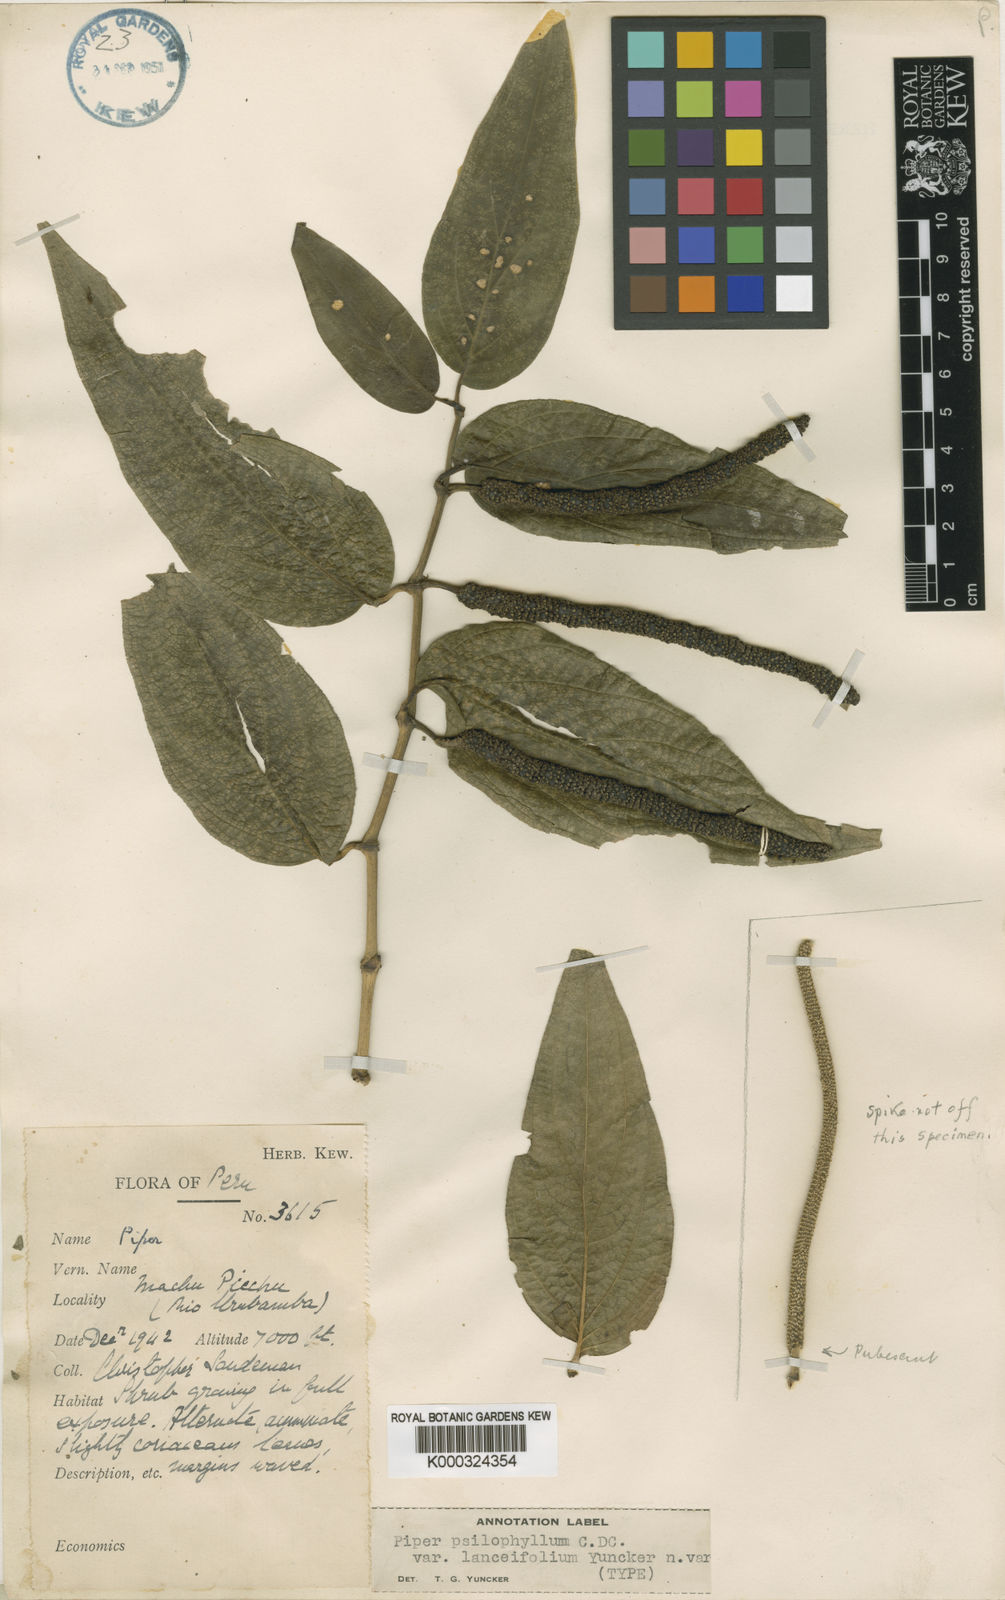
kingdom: Plantae
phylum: Tracheophyta
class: Magnoliopsida
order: Piperales
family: Piperaceae
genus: Piper
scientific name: Piper psilophyllum
